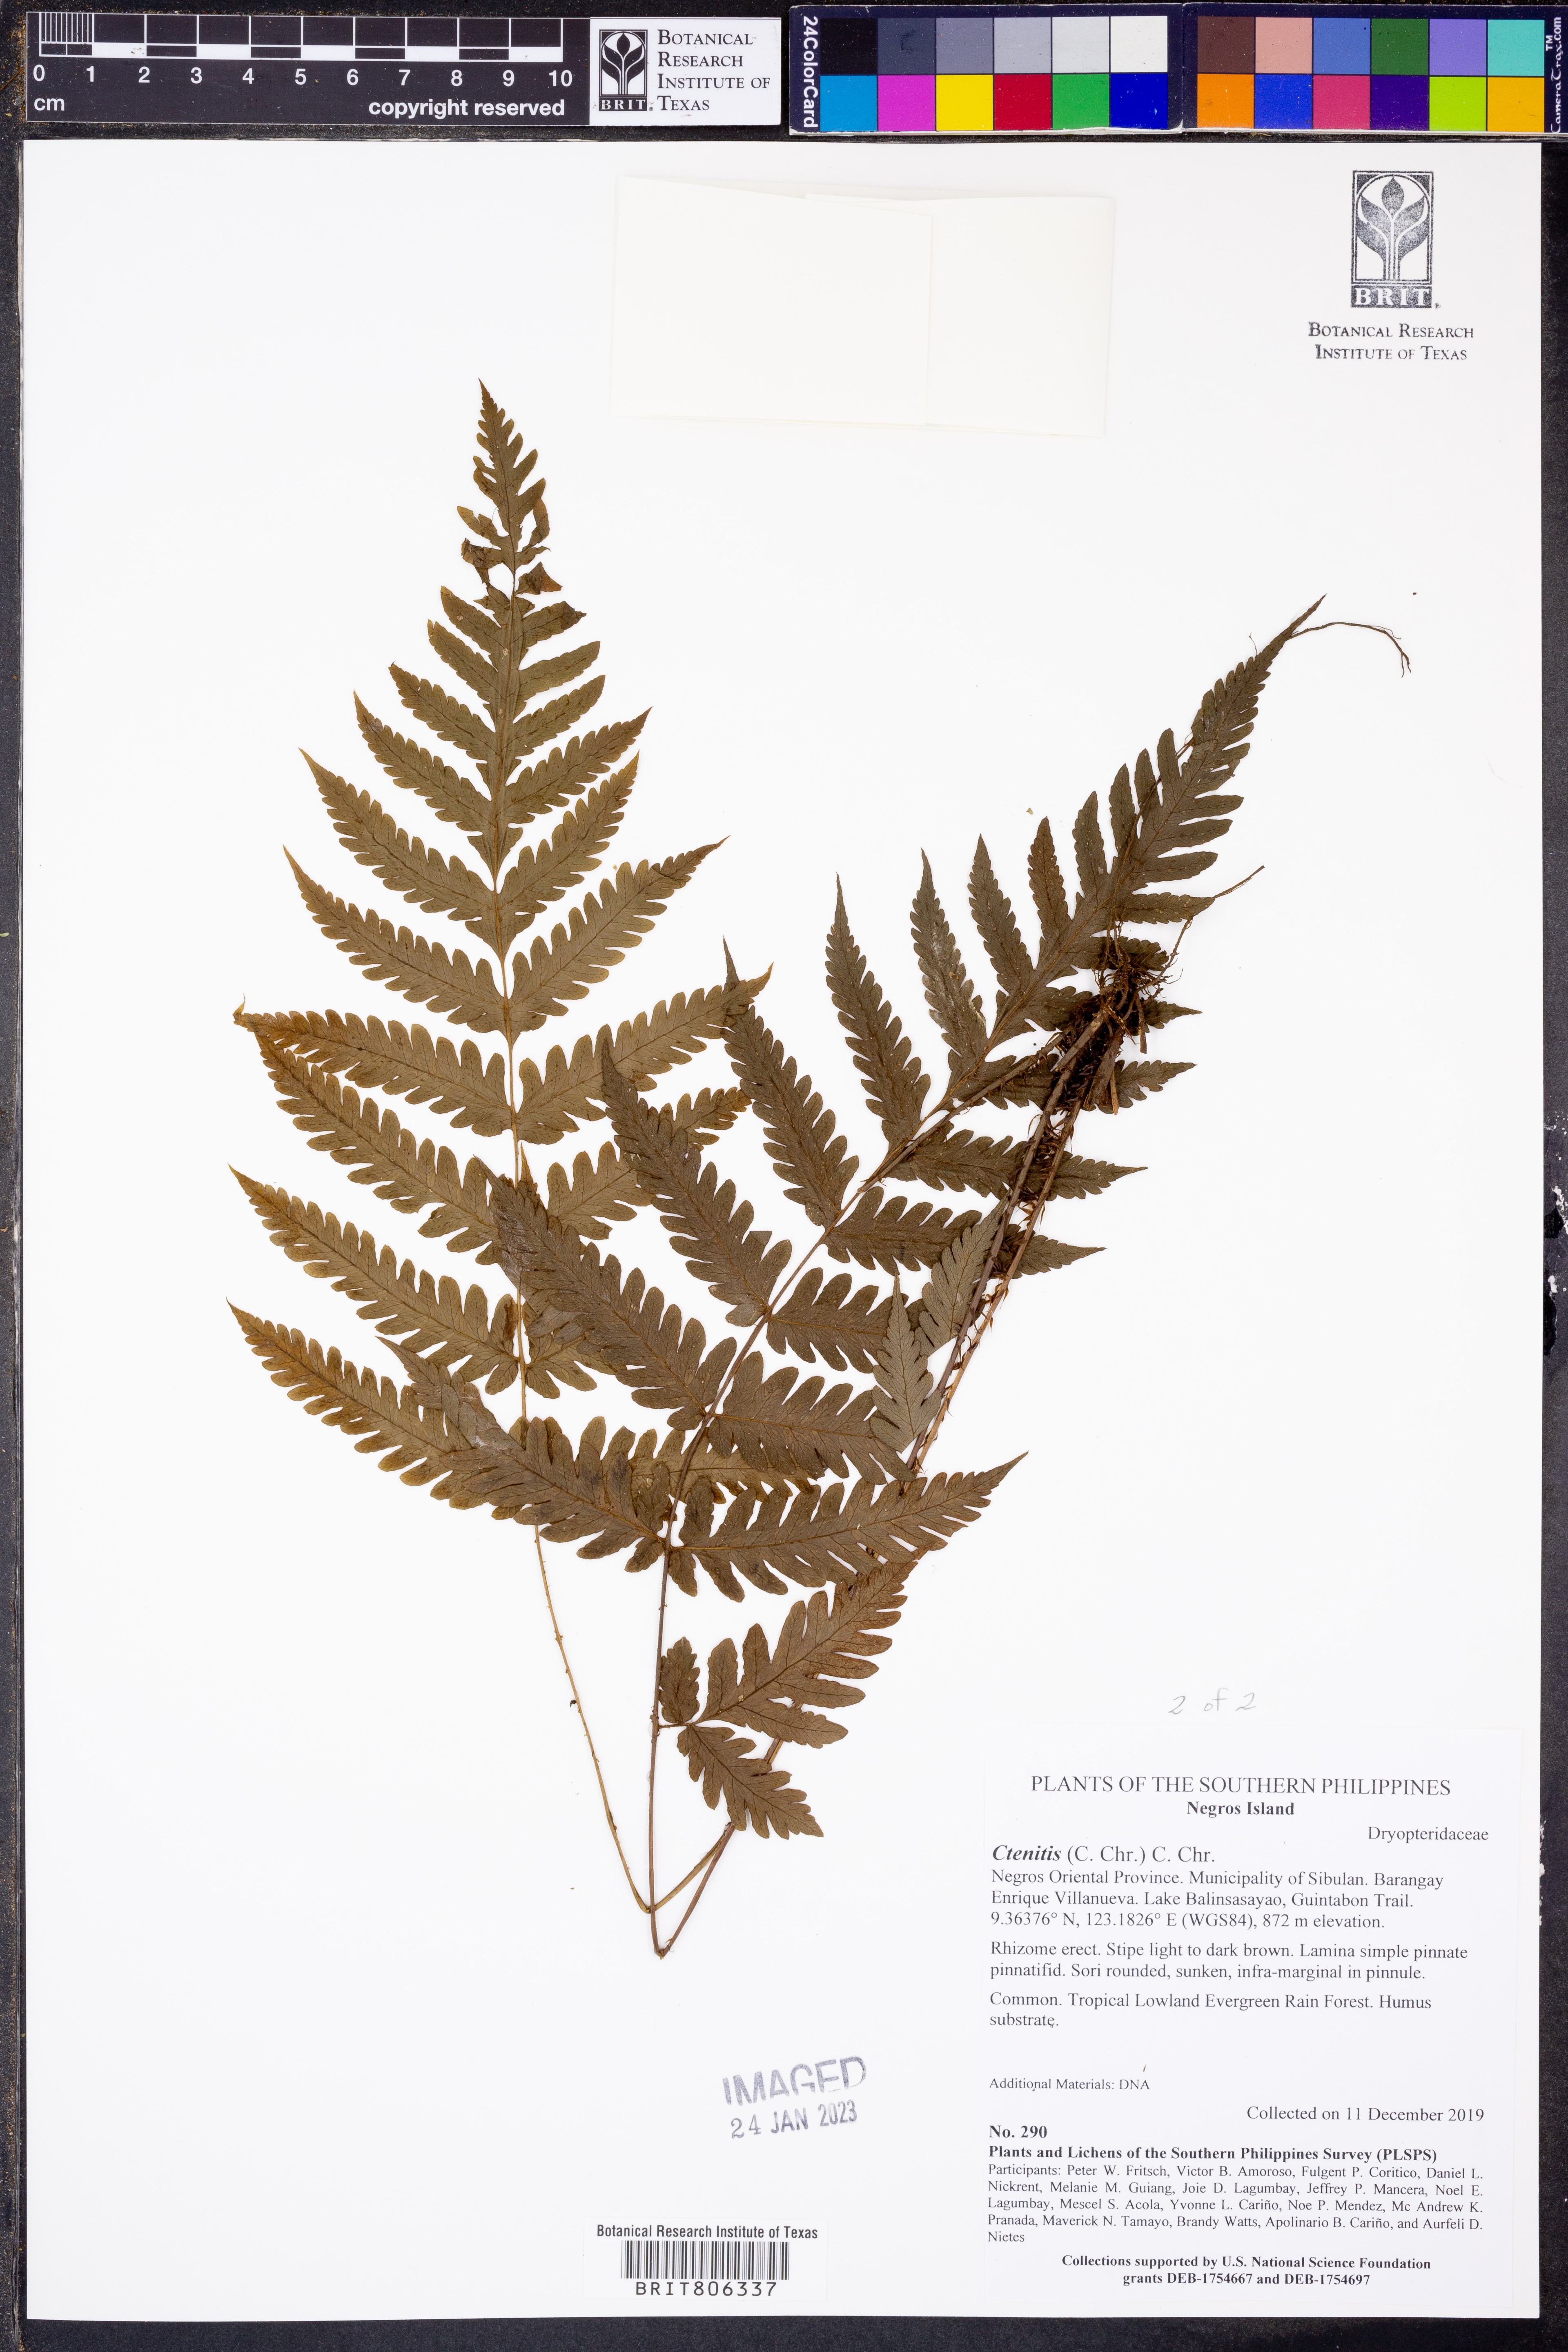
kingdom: Plantae
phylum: Tracheophyta
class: Polypodiopsida
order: Polypodiales
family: Dryopteridaceae
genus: Ctenitis
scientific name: Ctenitis
